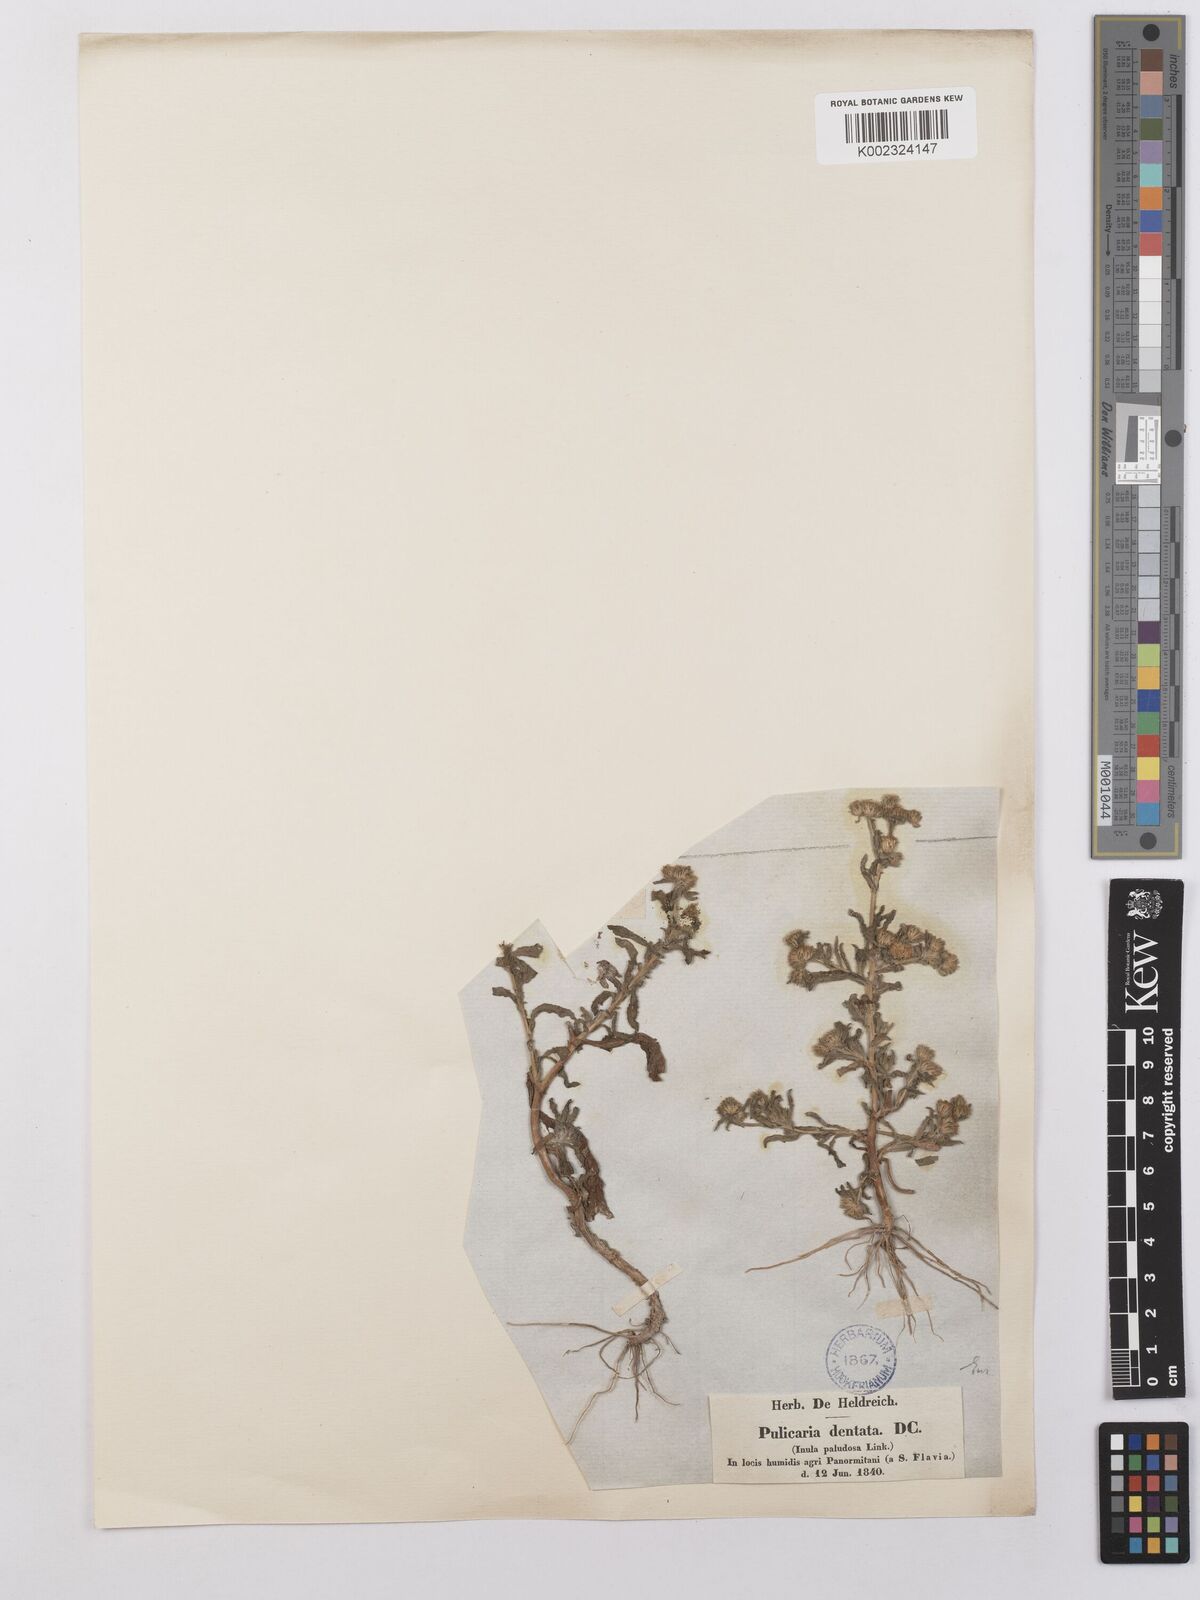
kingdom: Plantae
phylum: Tracheophyta
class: Magnoliopsida
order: Asterales
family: Asteraceae
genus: Pulicaria
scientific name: Pulicaria vulgaris
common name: Small fleabane
